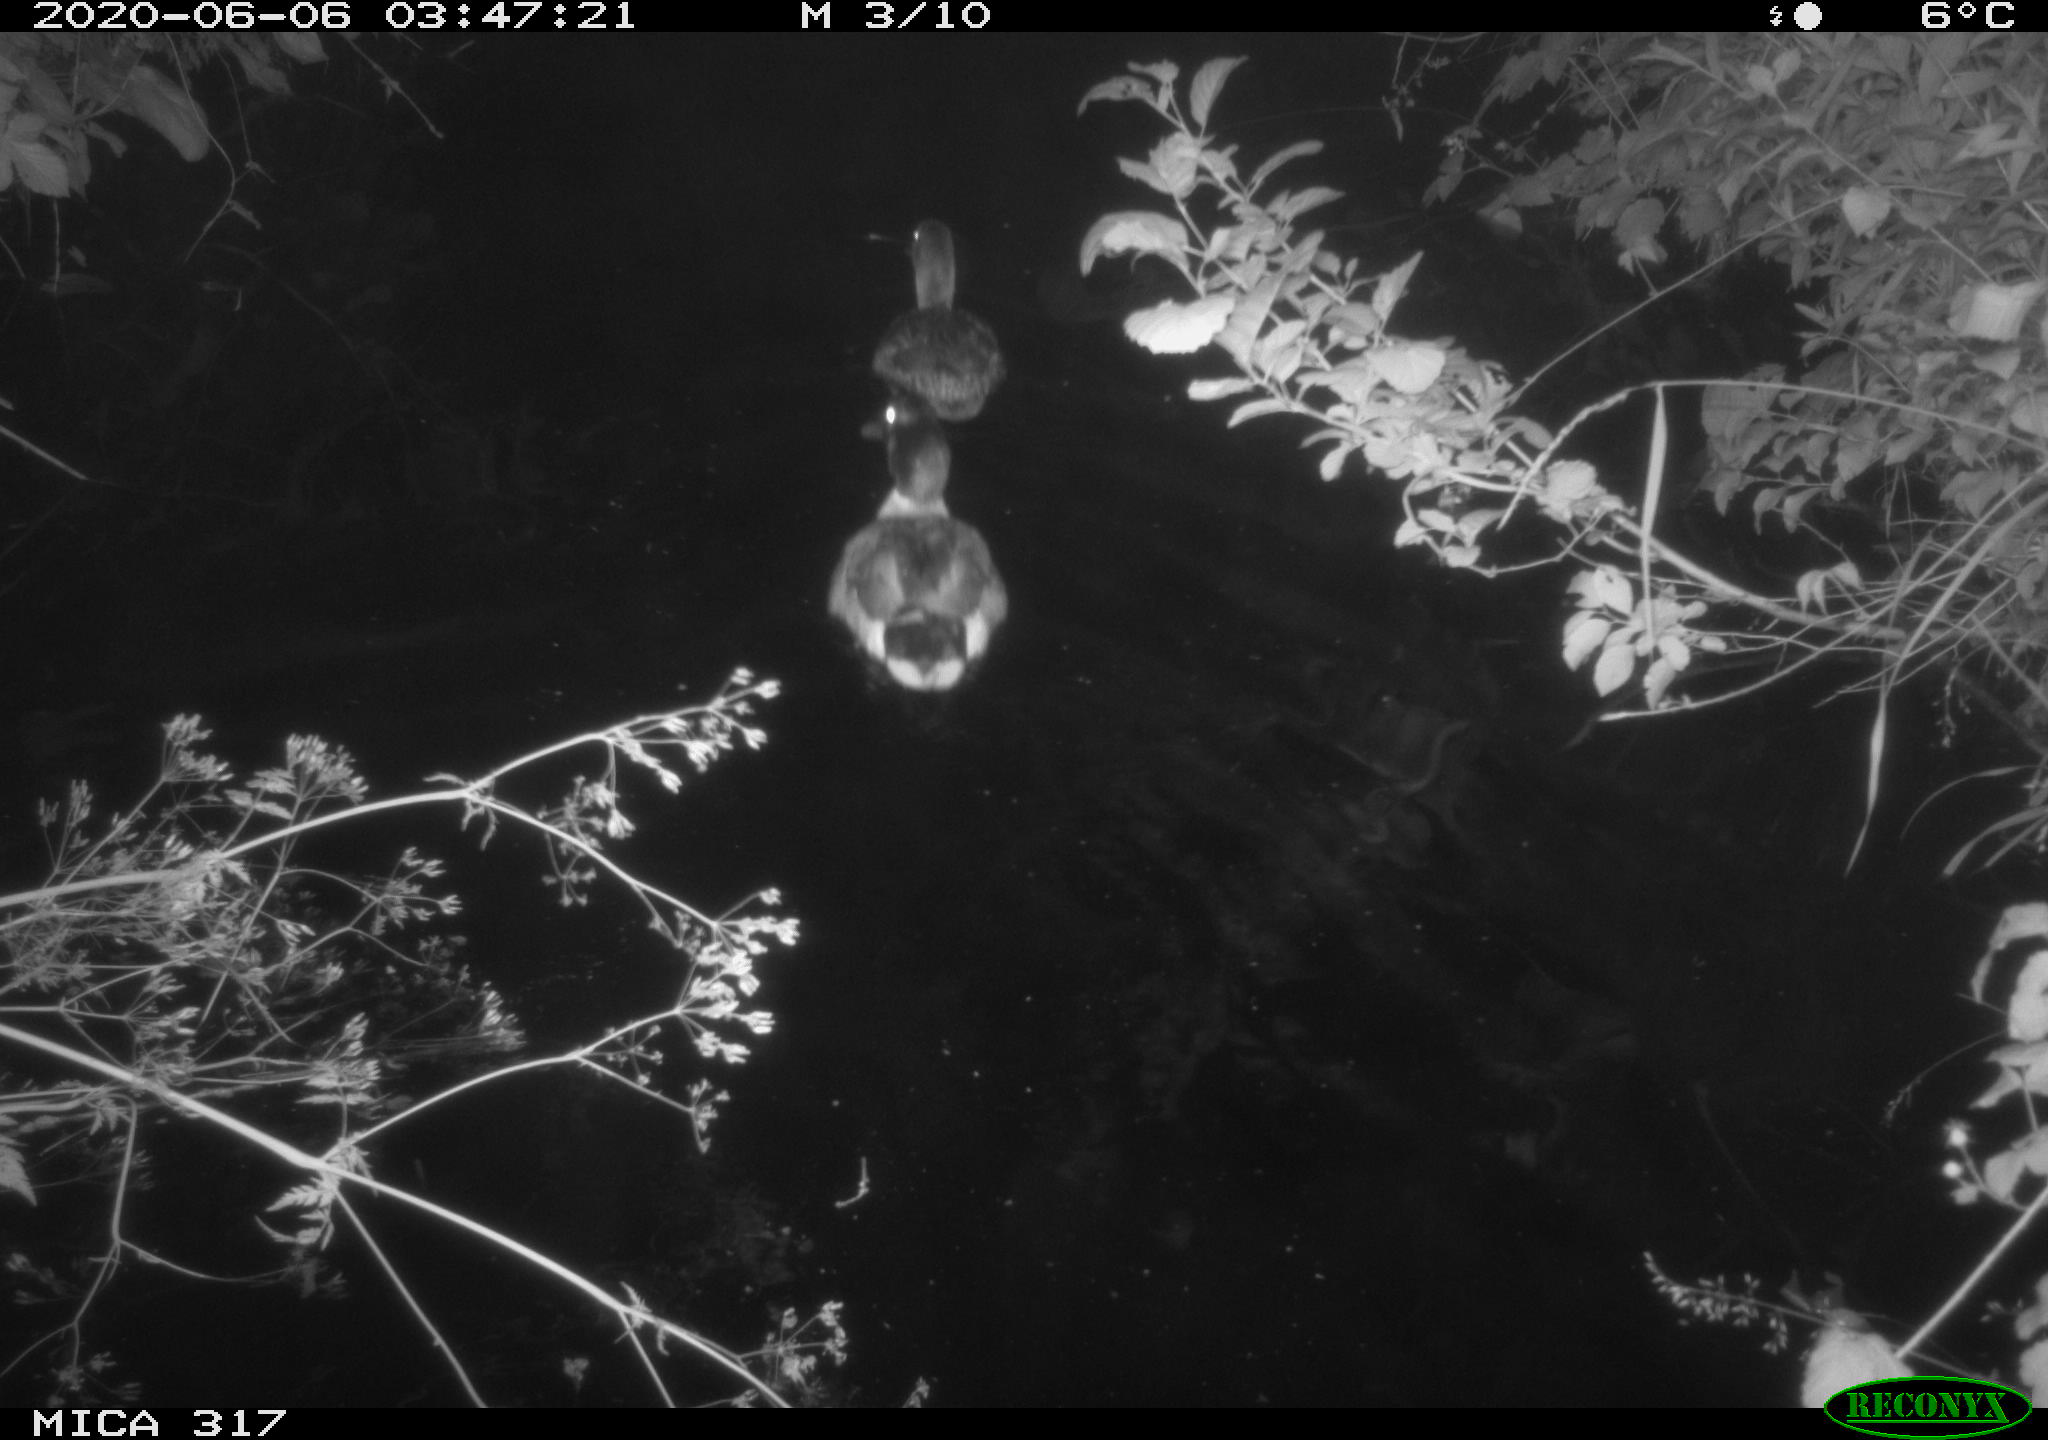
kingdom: Animalia
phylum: Chordata
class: Aves
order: Anseriformes
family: Anatidae
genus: Anas
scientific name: Anas platyrhynchos
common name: Mallard
